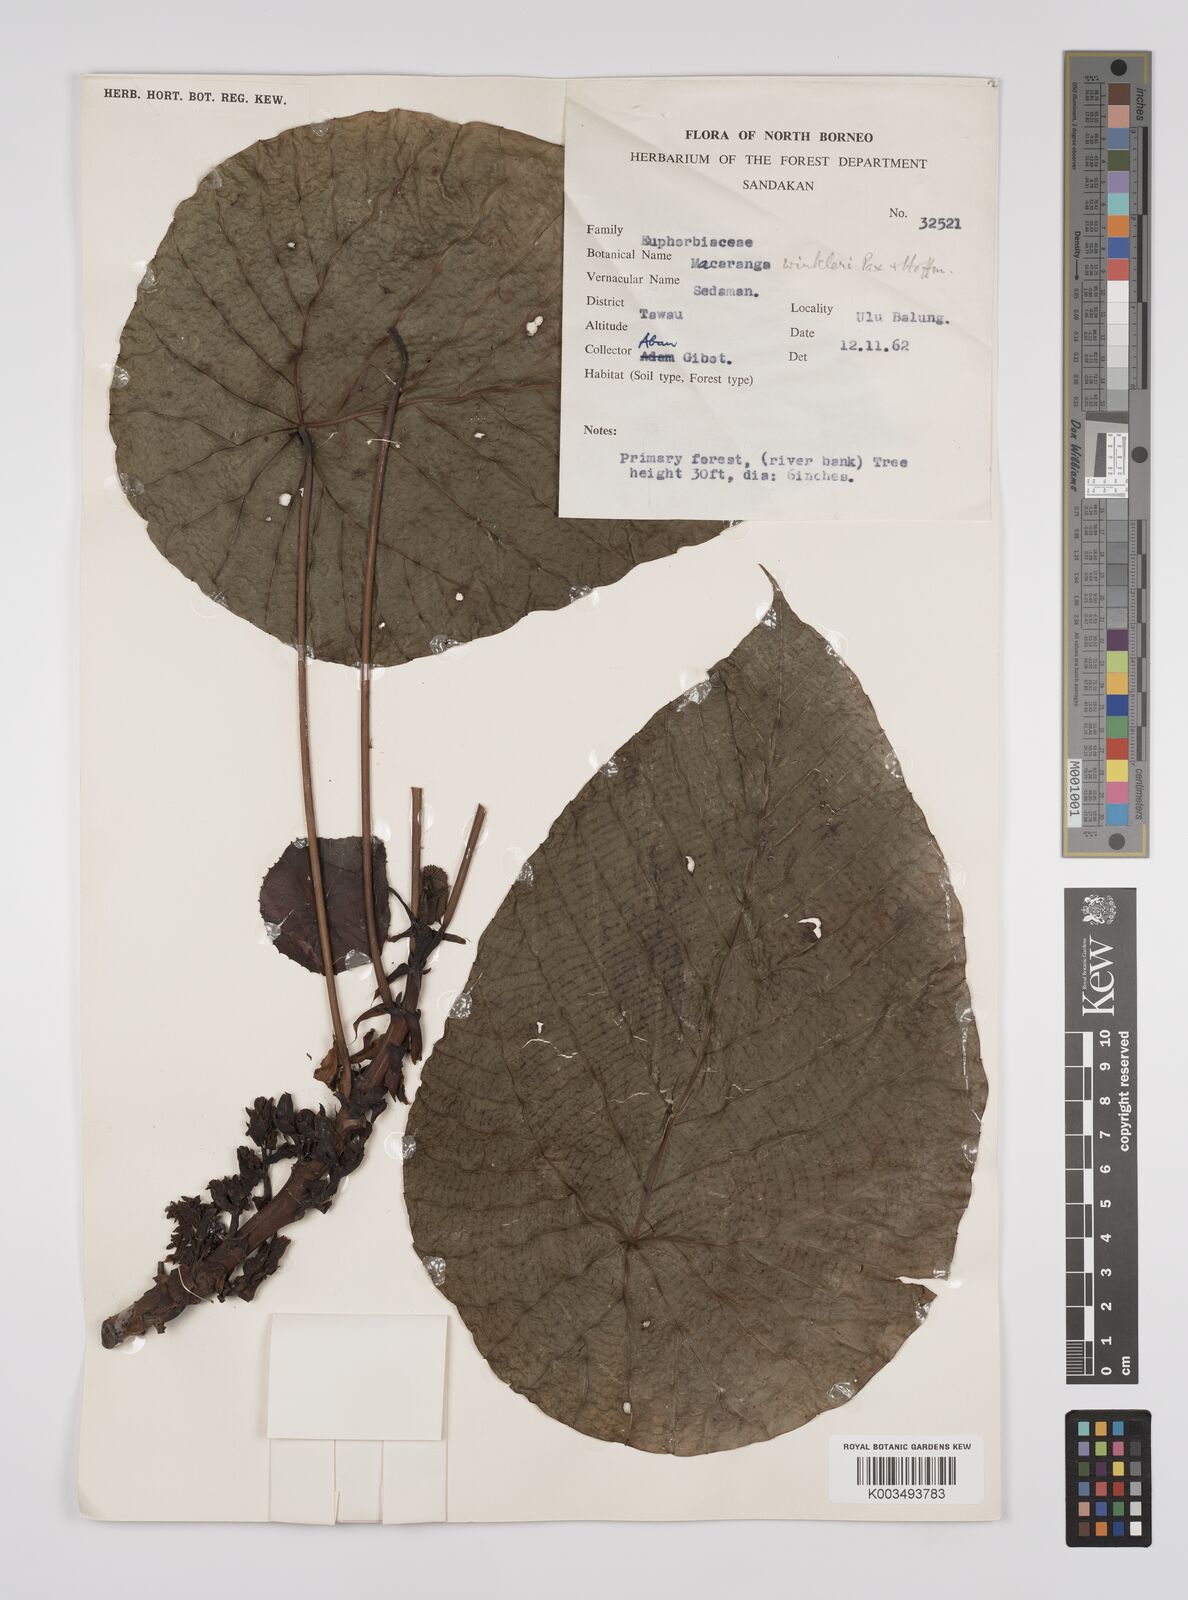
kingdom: Plantae
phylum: Tracheophyta
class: Magnoliopsida
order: Malpighiales
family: Euphorbiaceae
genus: Macaranga
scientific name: Macaranga winkleri
